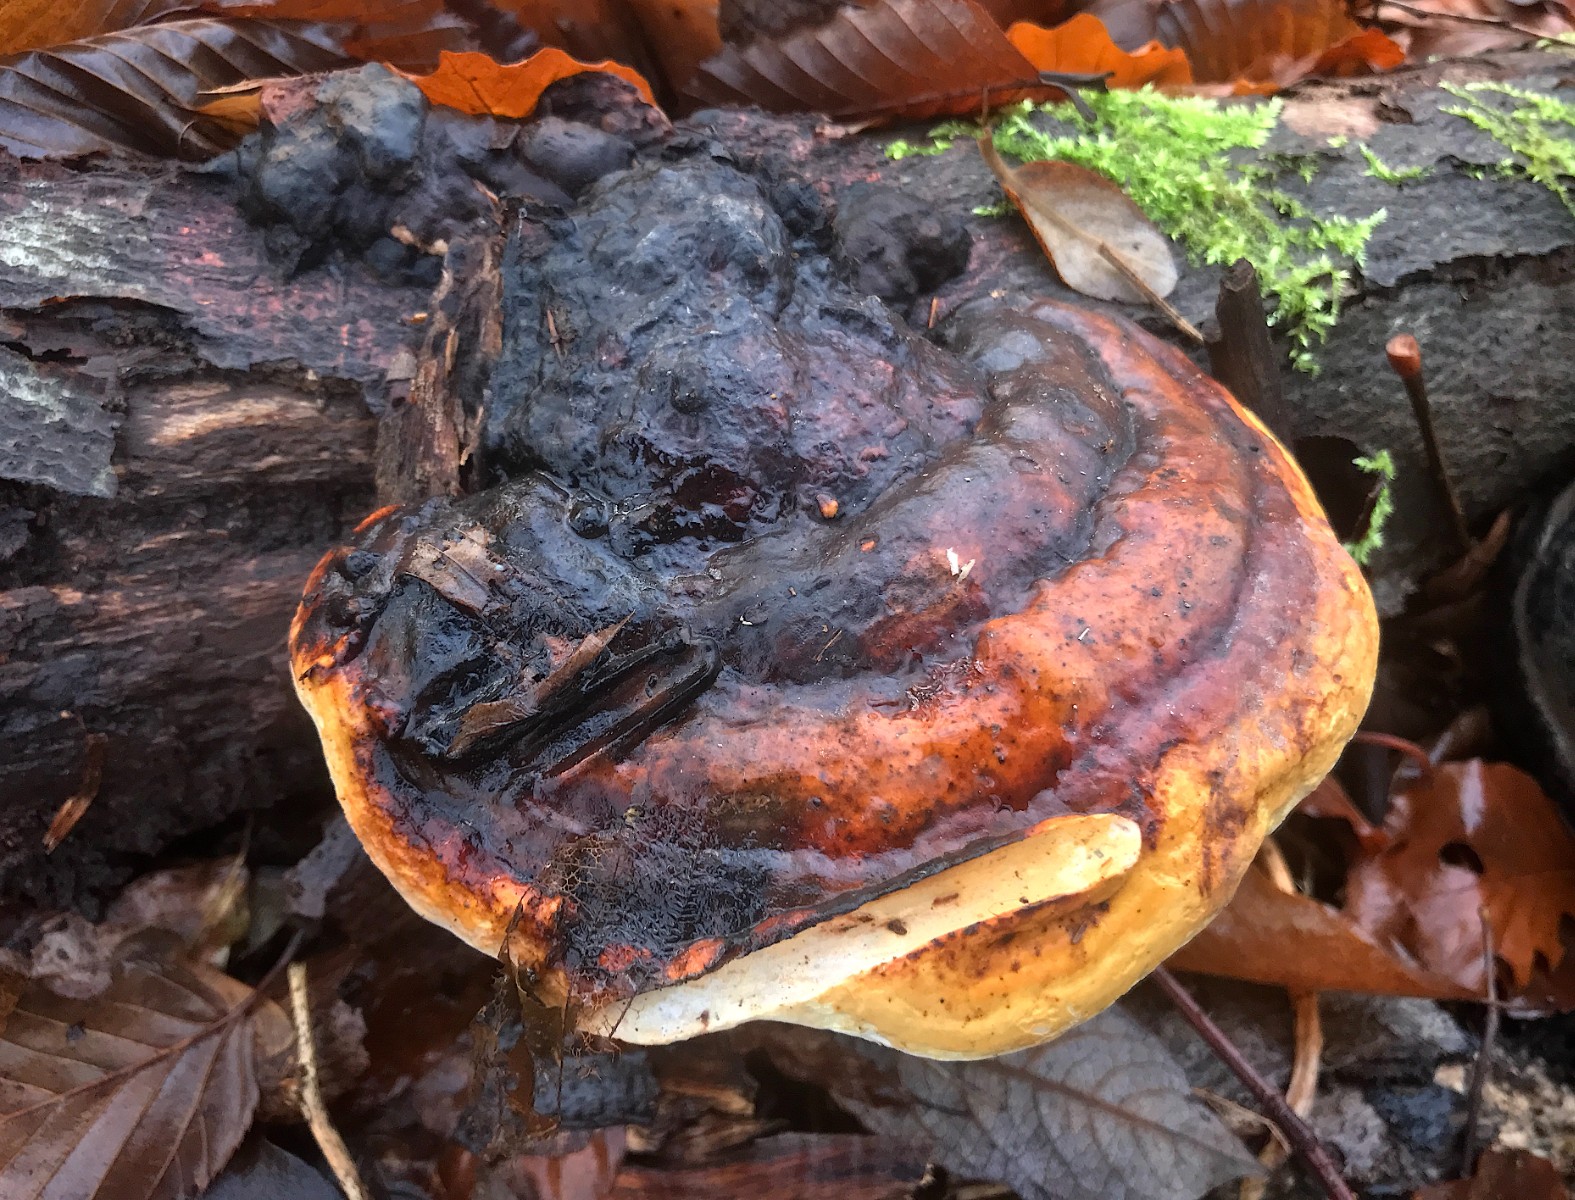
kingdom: Fungi
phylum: Basidiomycota
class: Agaricomycetes
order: Polyporales
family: Fomitopsidaceae
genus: Fomitopsis
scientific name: Fomitopsis pinicola
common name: randbæltet hovporesvamp
